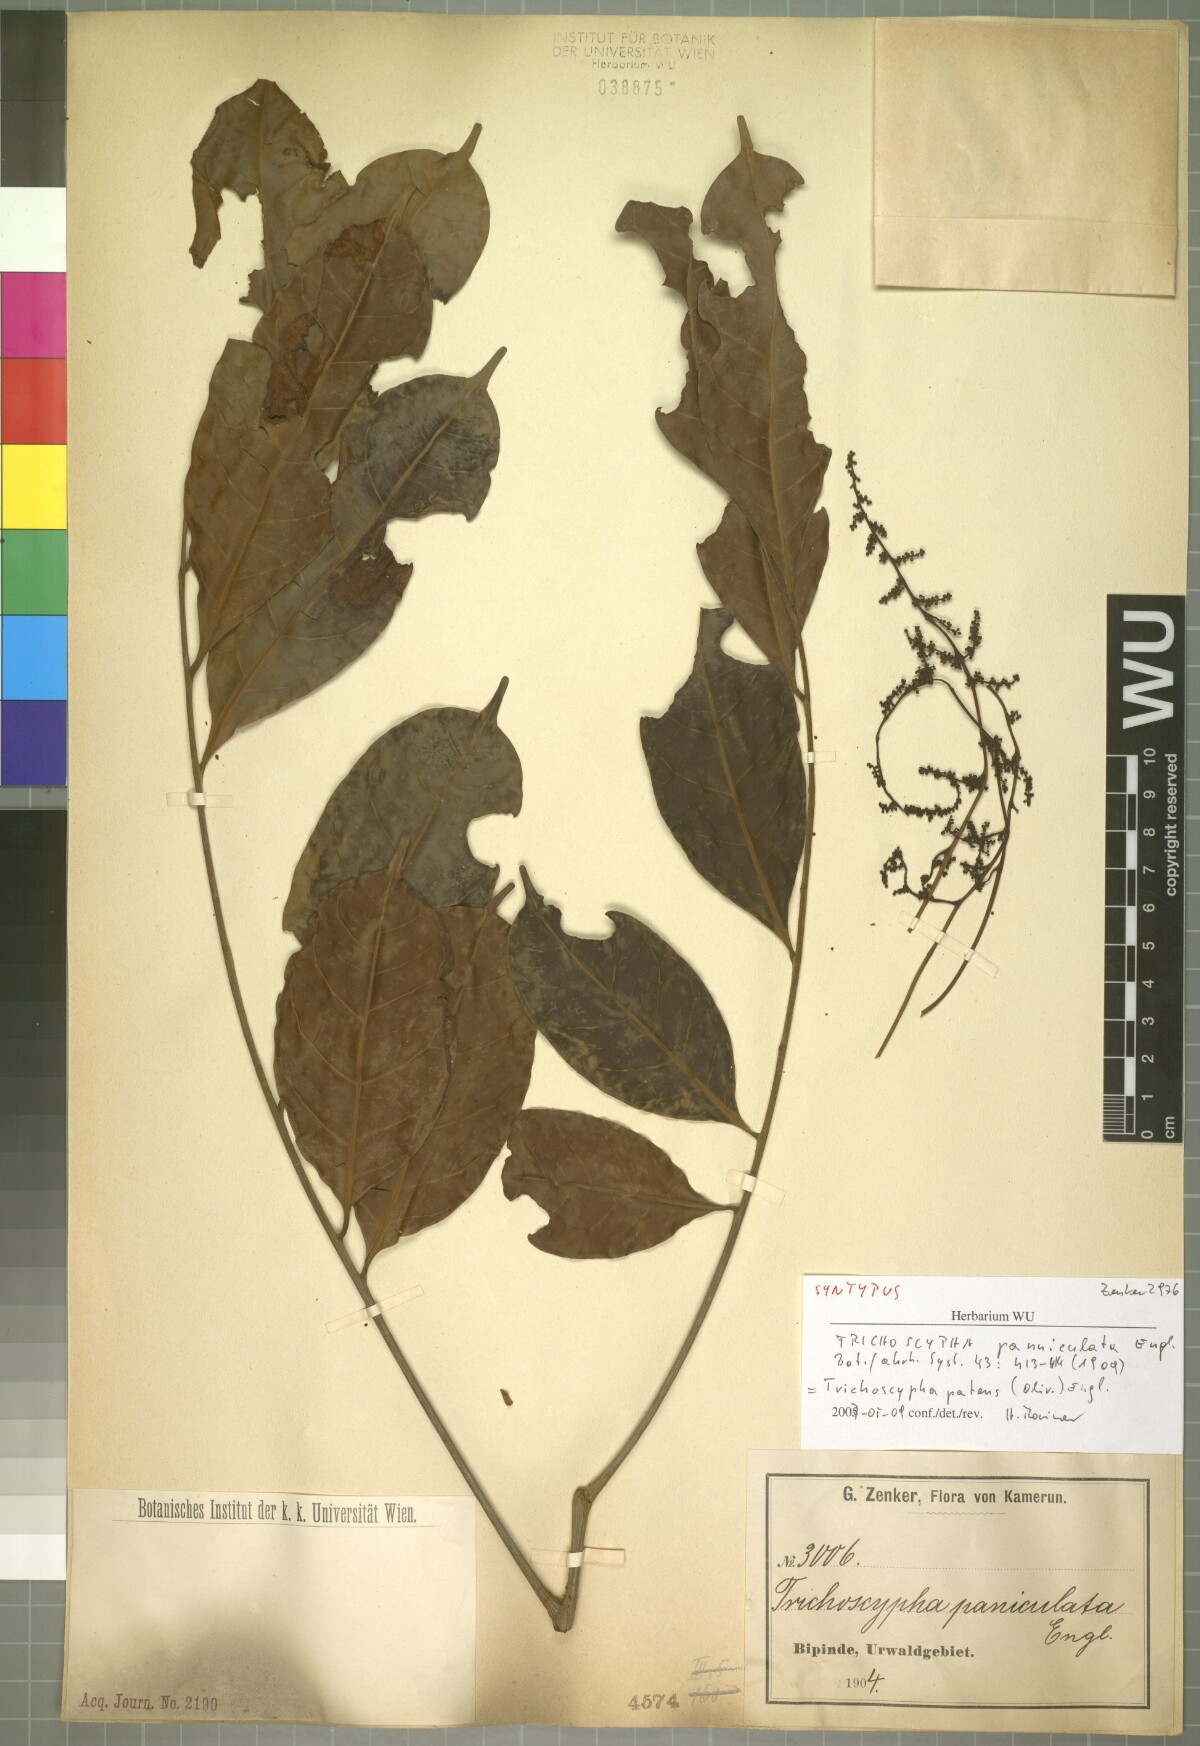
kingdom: Plantae
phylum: Tracheophyta
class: Magnoliopsida
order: Sapindales
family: Anacardiaceae
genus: Trichoscypha
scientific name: Trichoscypha patens
